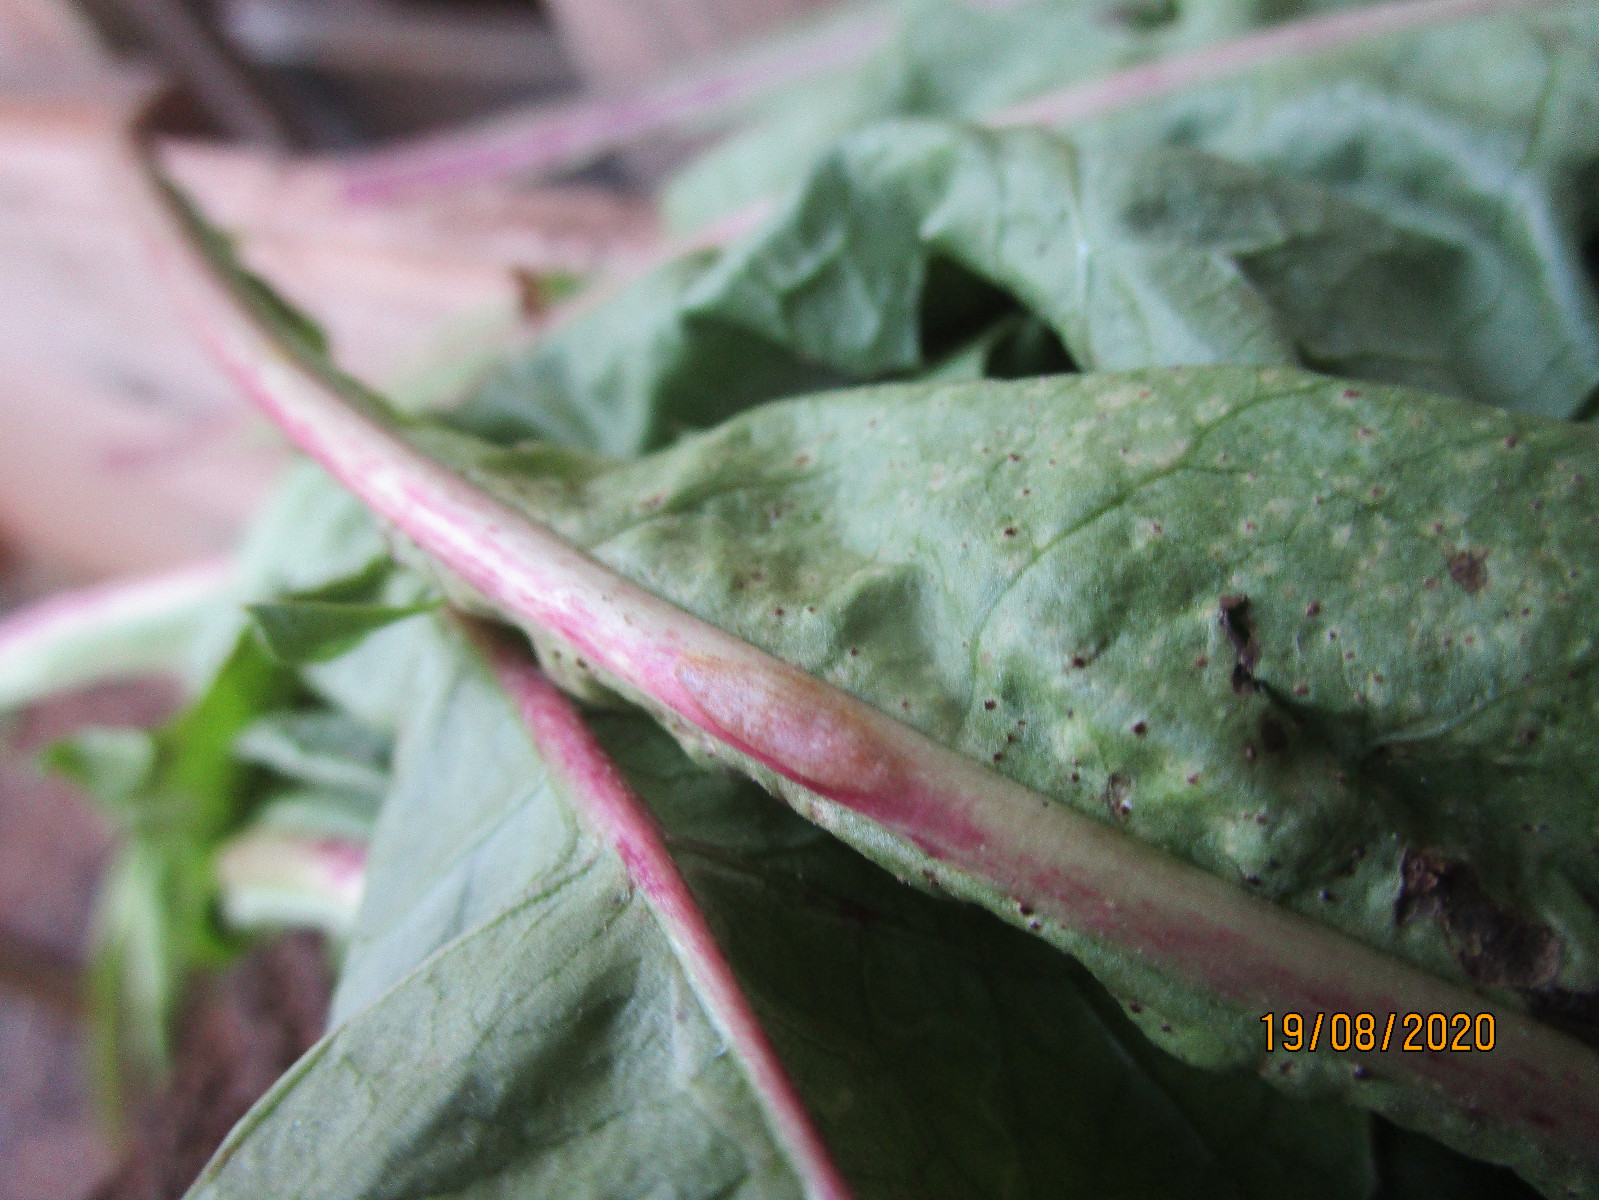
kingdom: Fungi
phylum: Basidiomycota
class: Pucciniomycetes
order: Pucciniales
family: Pucciniaceae
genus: Puccinia
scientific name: Puccinia hieracii
